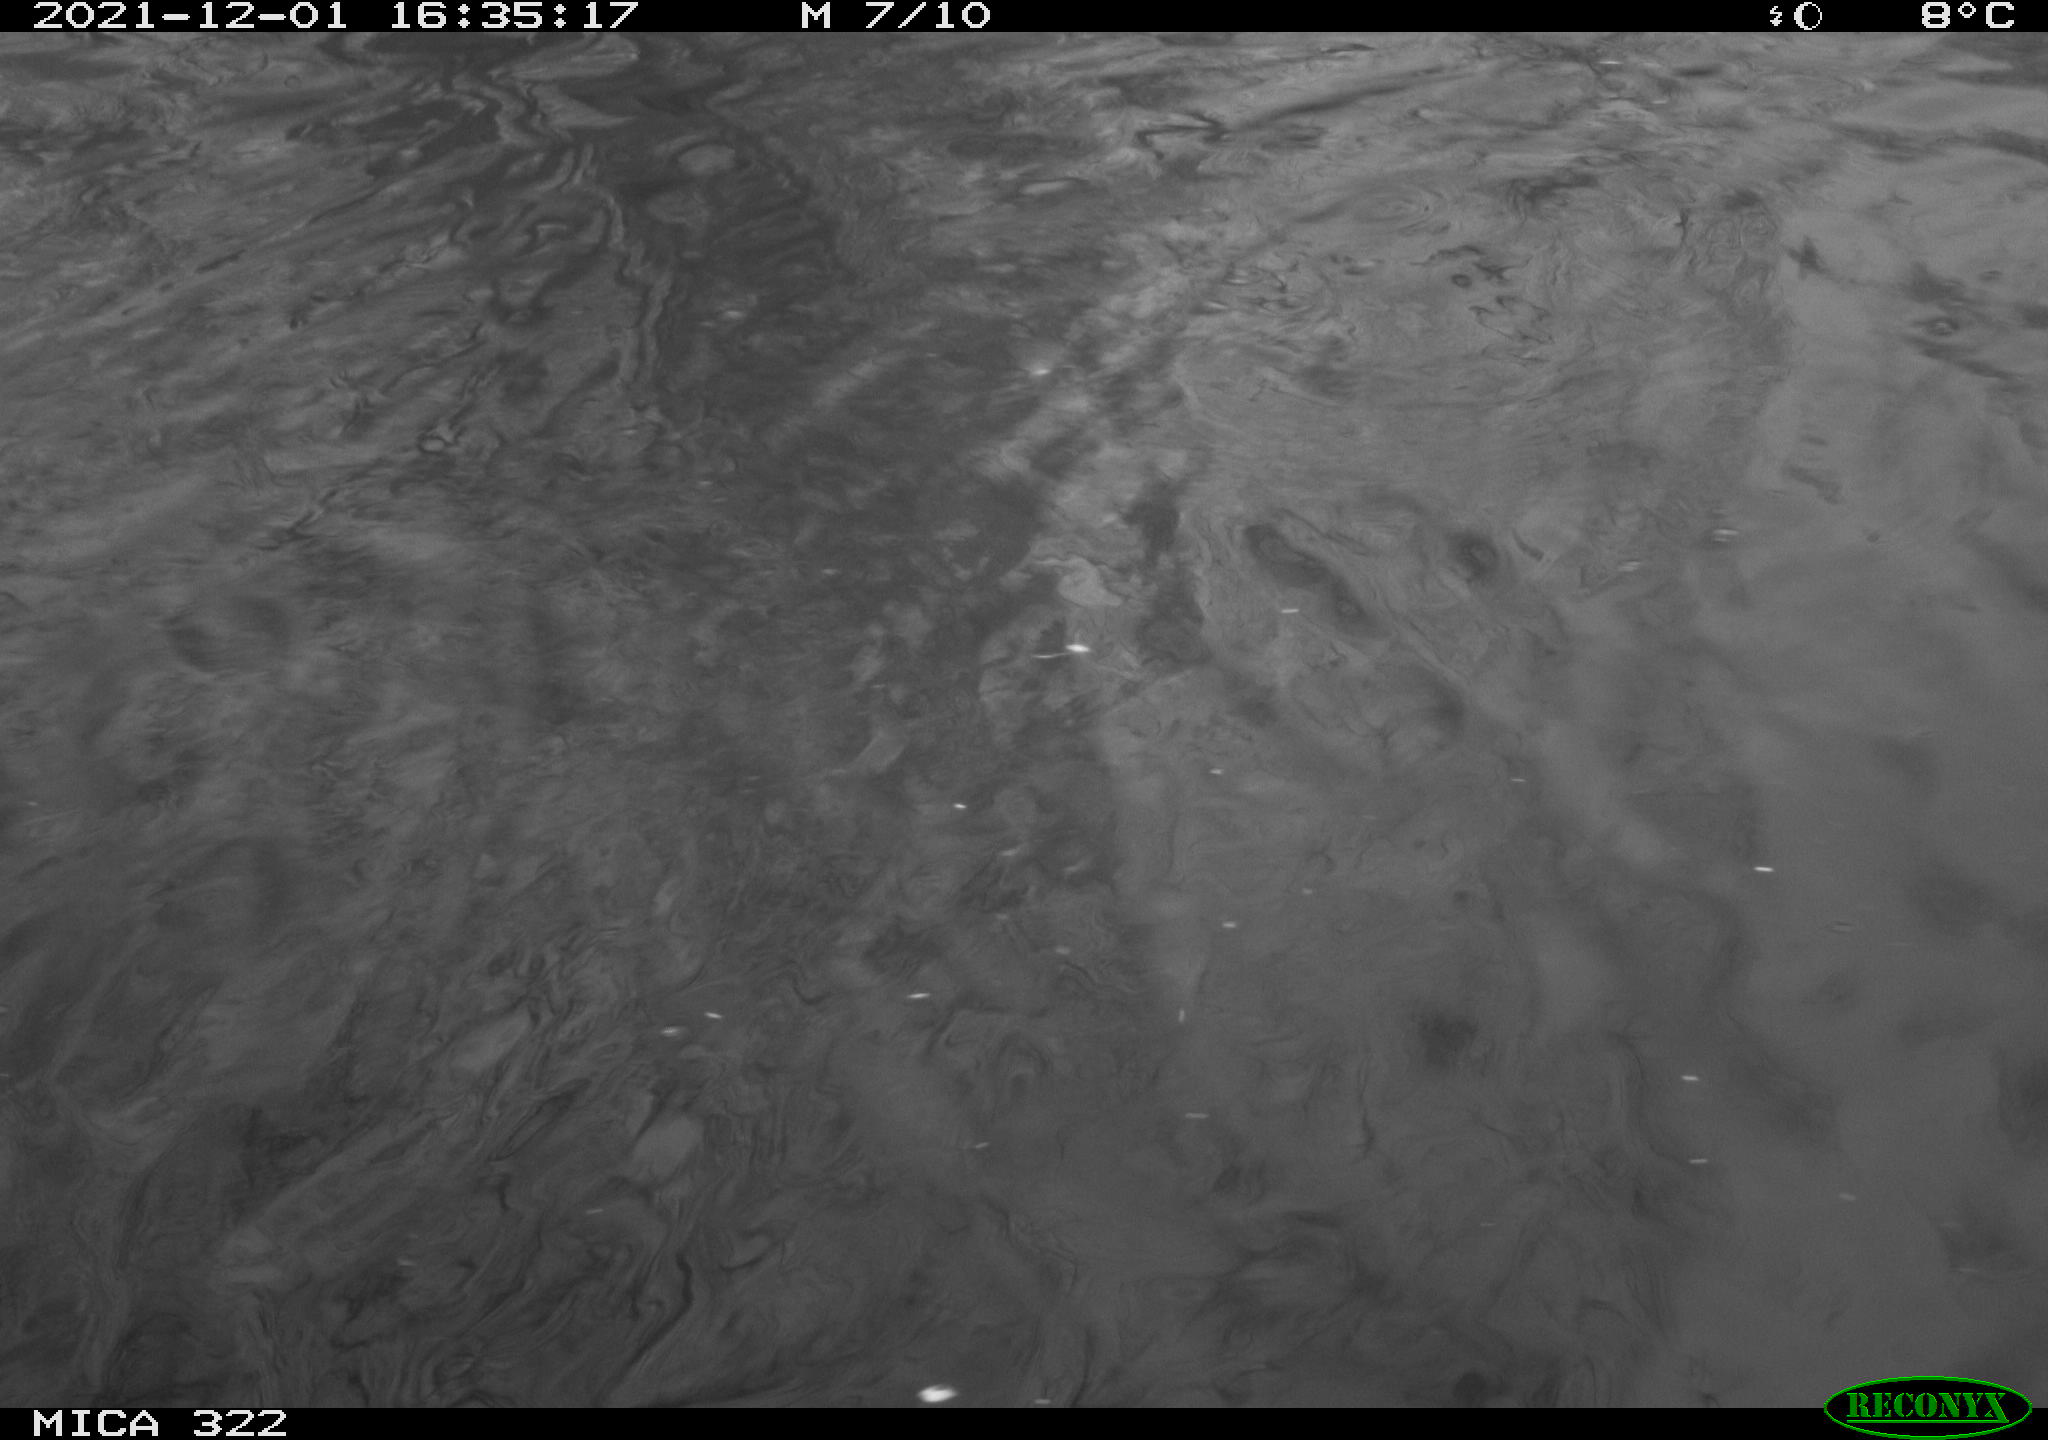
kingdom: Animalia
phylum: Chordata
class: Aves
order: Gruiformes
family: Rallidae
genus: Gallinula
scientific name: Gallinula chloropus
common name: Common moorhen
